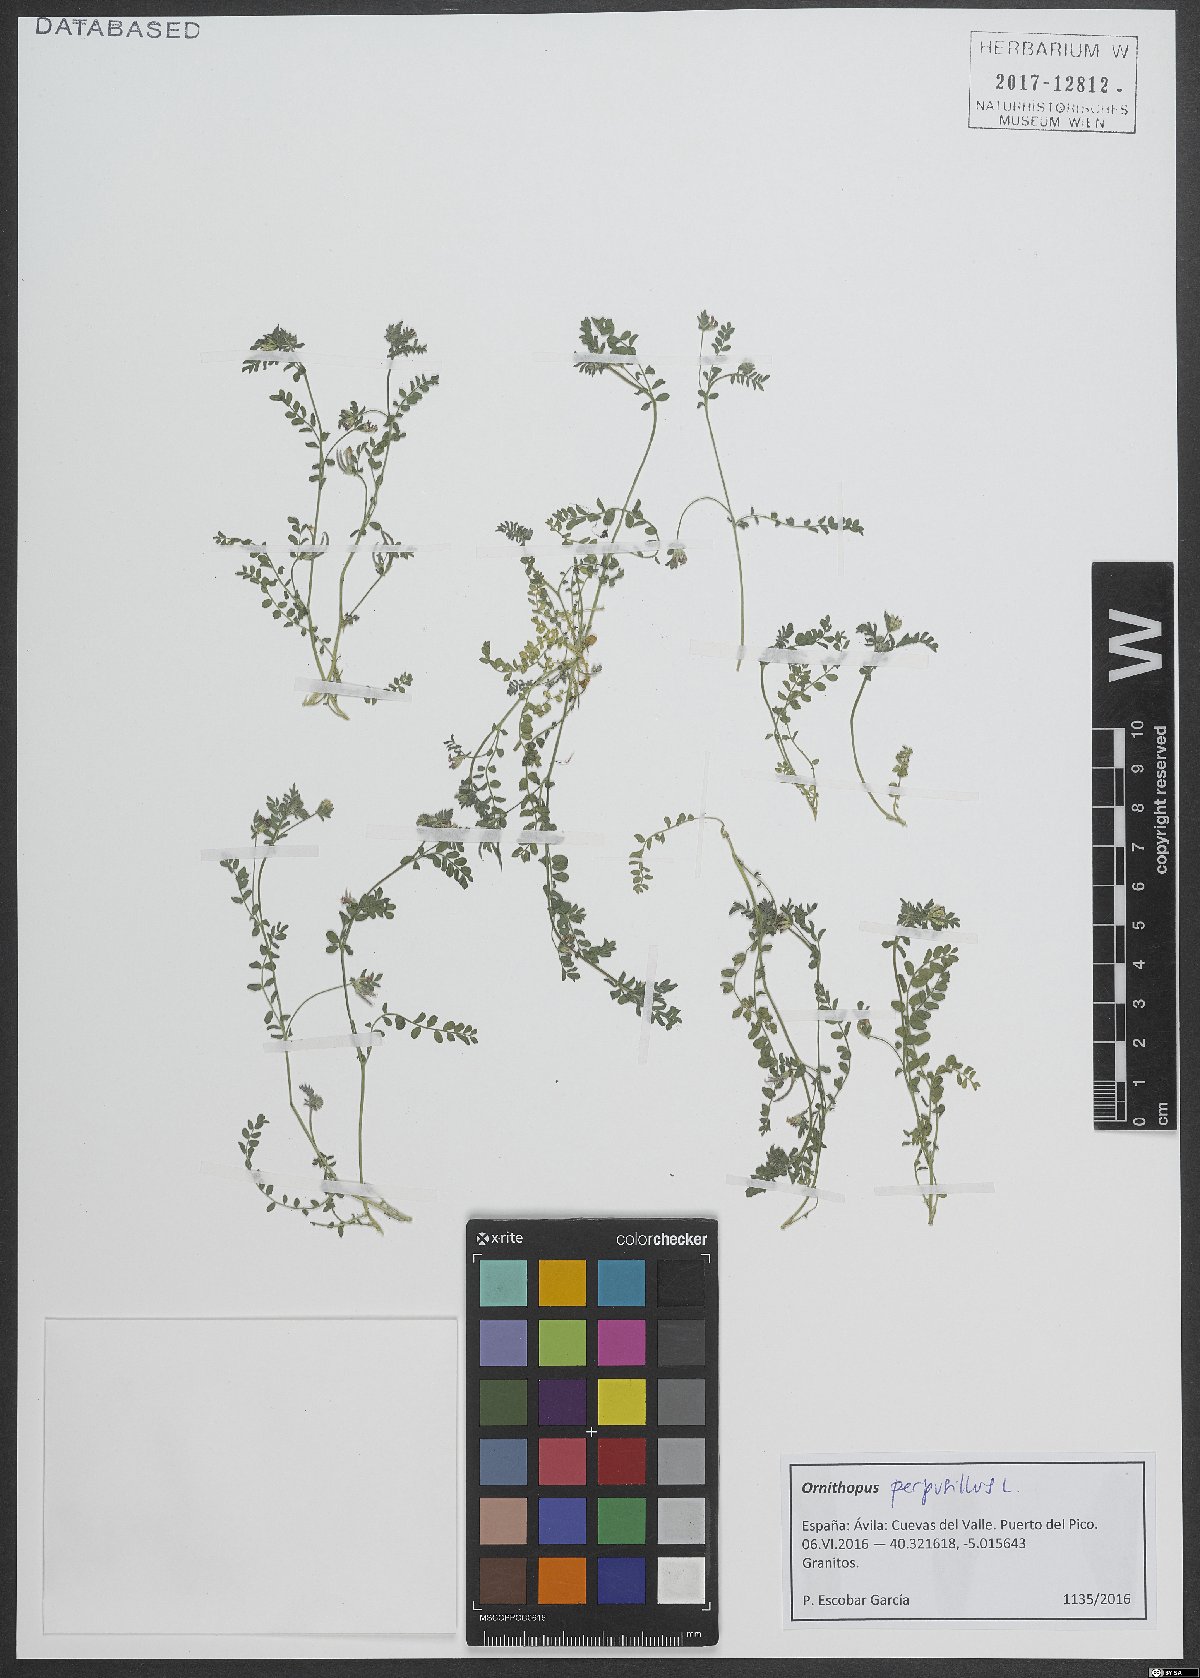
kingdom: Plantae
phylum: Tracheophyta
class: Magnoliopsida
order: Fabales
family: Fabaceae
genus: Ornithopus
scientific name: Ornithopus perpusillus
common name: Bird's-foot
